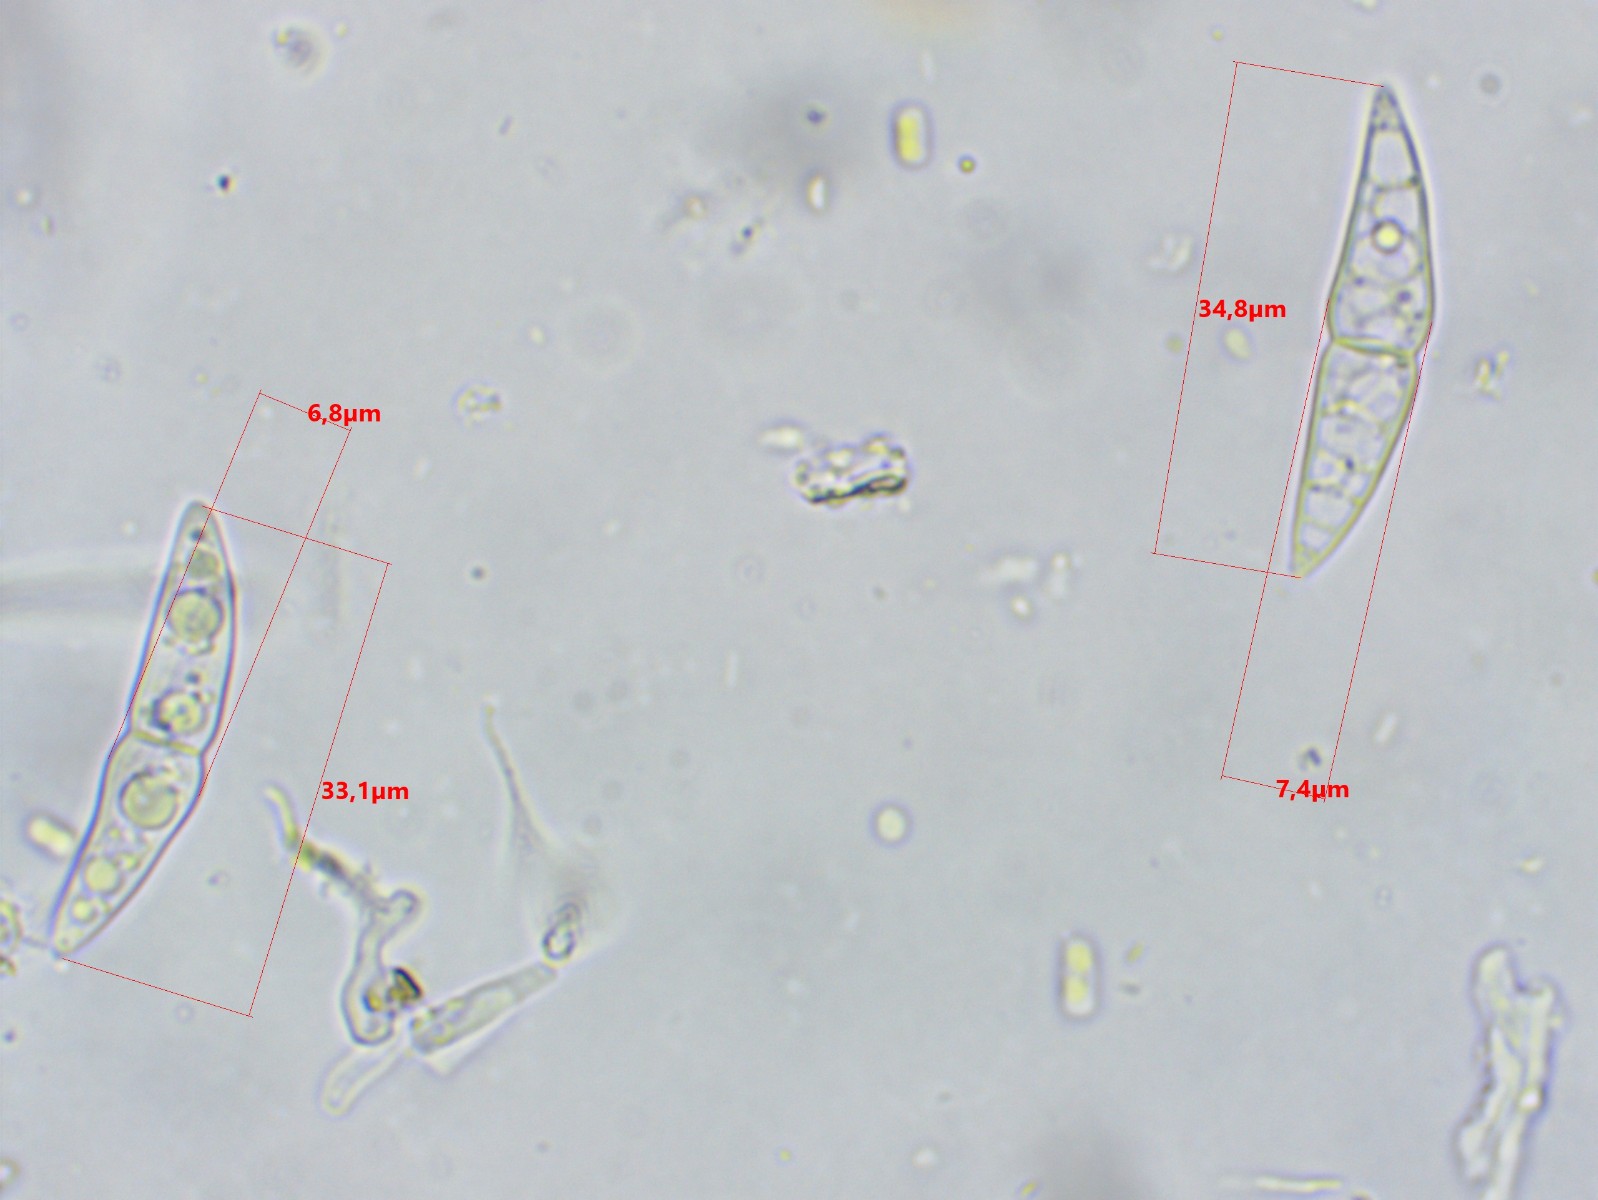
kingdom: Fungi
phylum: Ascomycota
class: Dothideomycetes
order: Pleosporales
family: Lophiostomataceae
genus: Lophiostoma
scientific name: Lophiostoma semiliberum
